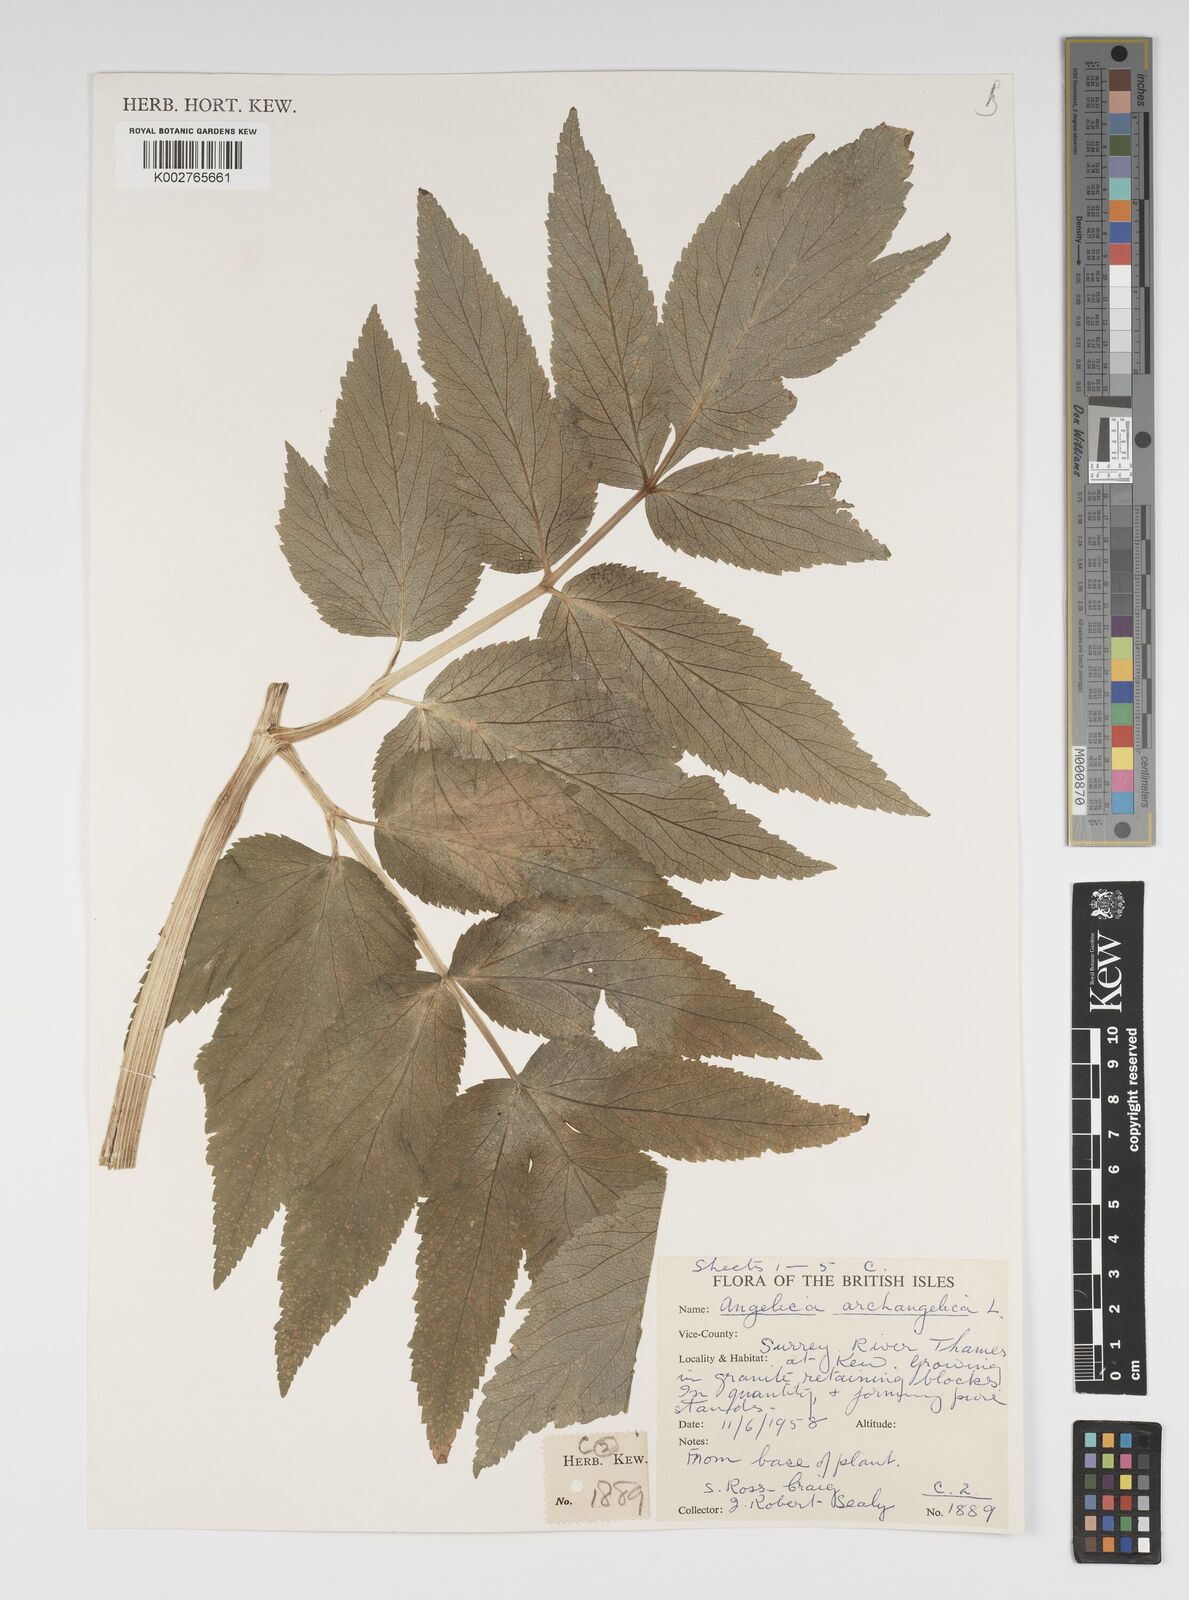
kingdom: Plantae
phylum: Tracheophyta
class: Magnoliopsida
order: Apiales
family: Apiaceae
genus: Angelica
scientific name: Angelica archangelica
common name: Garden angelica
